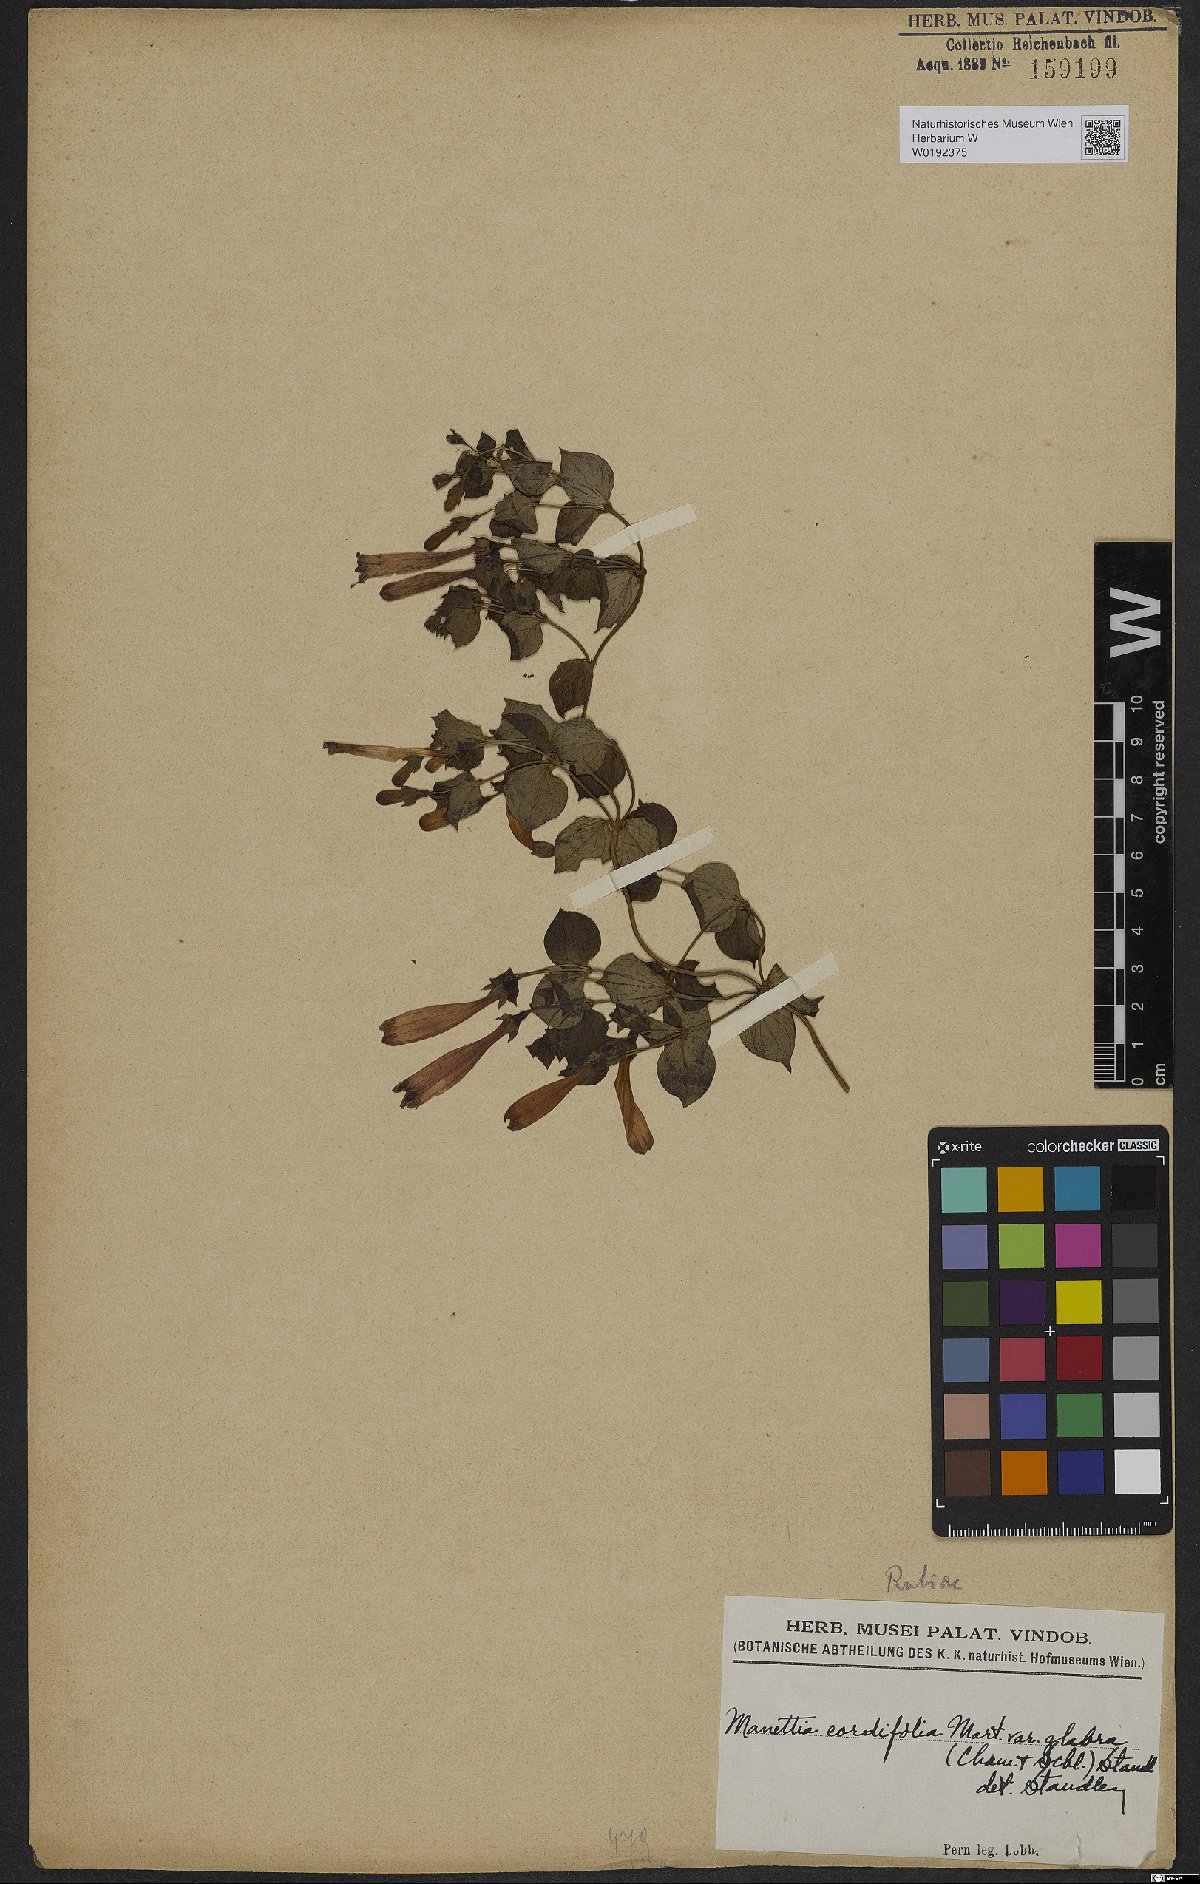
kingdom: Plantae
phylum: Tracheophyta
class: Magnoliopsida
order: Gentianales
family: Rubiaceae
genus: Manettia
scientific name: Manettia cordifolia
